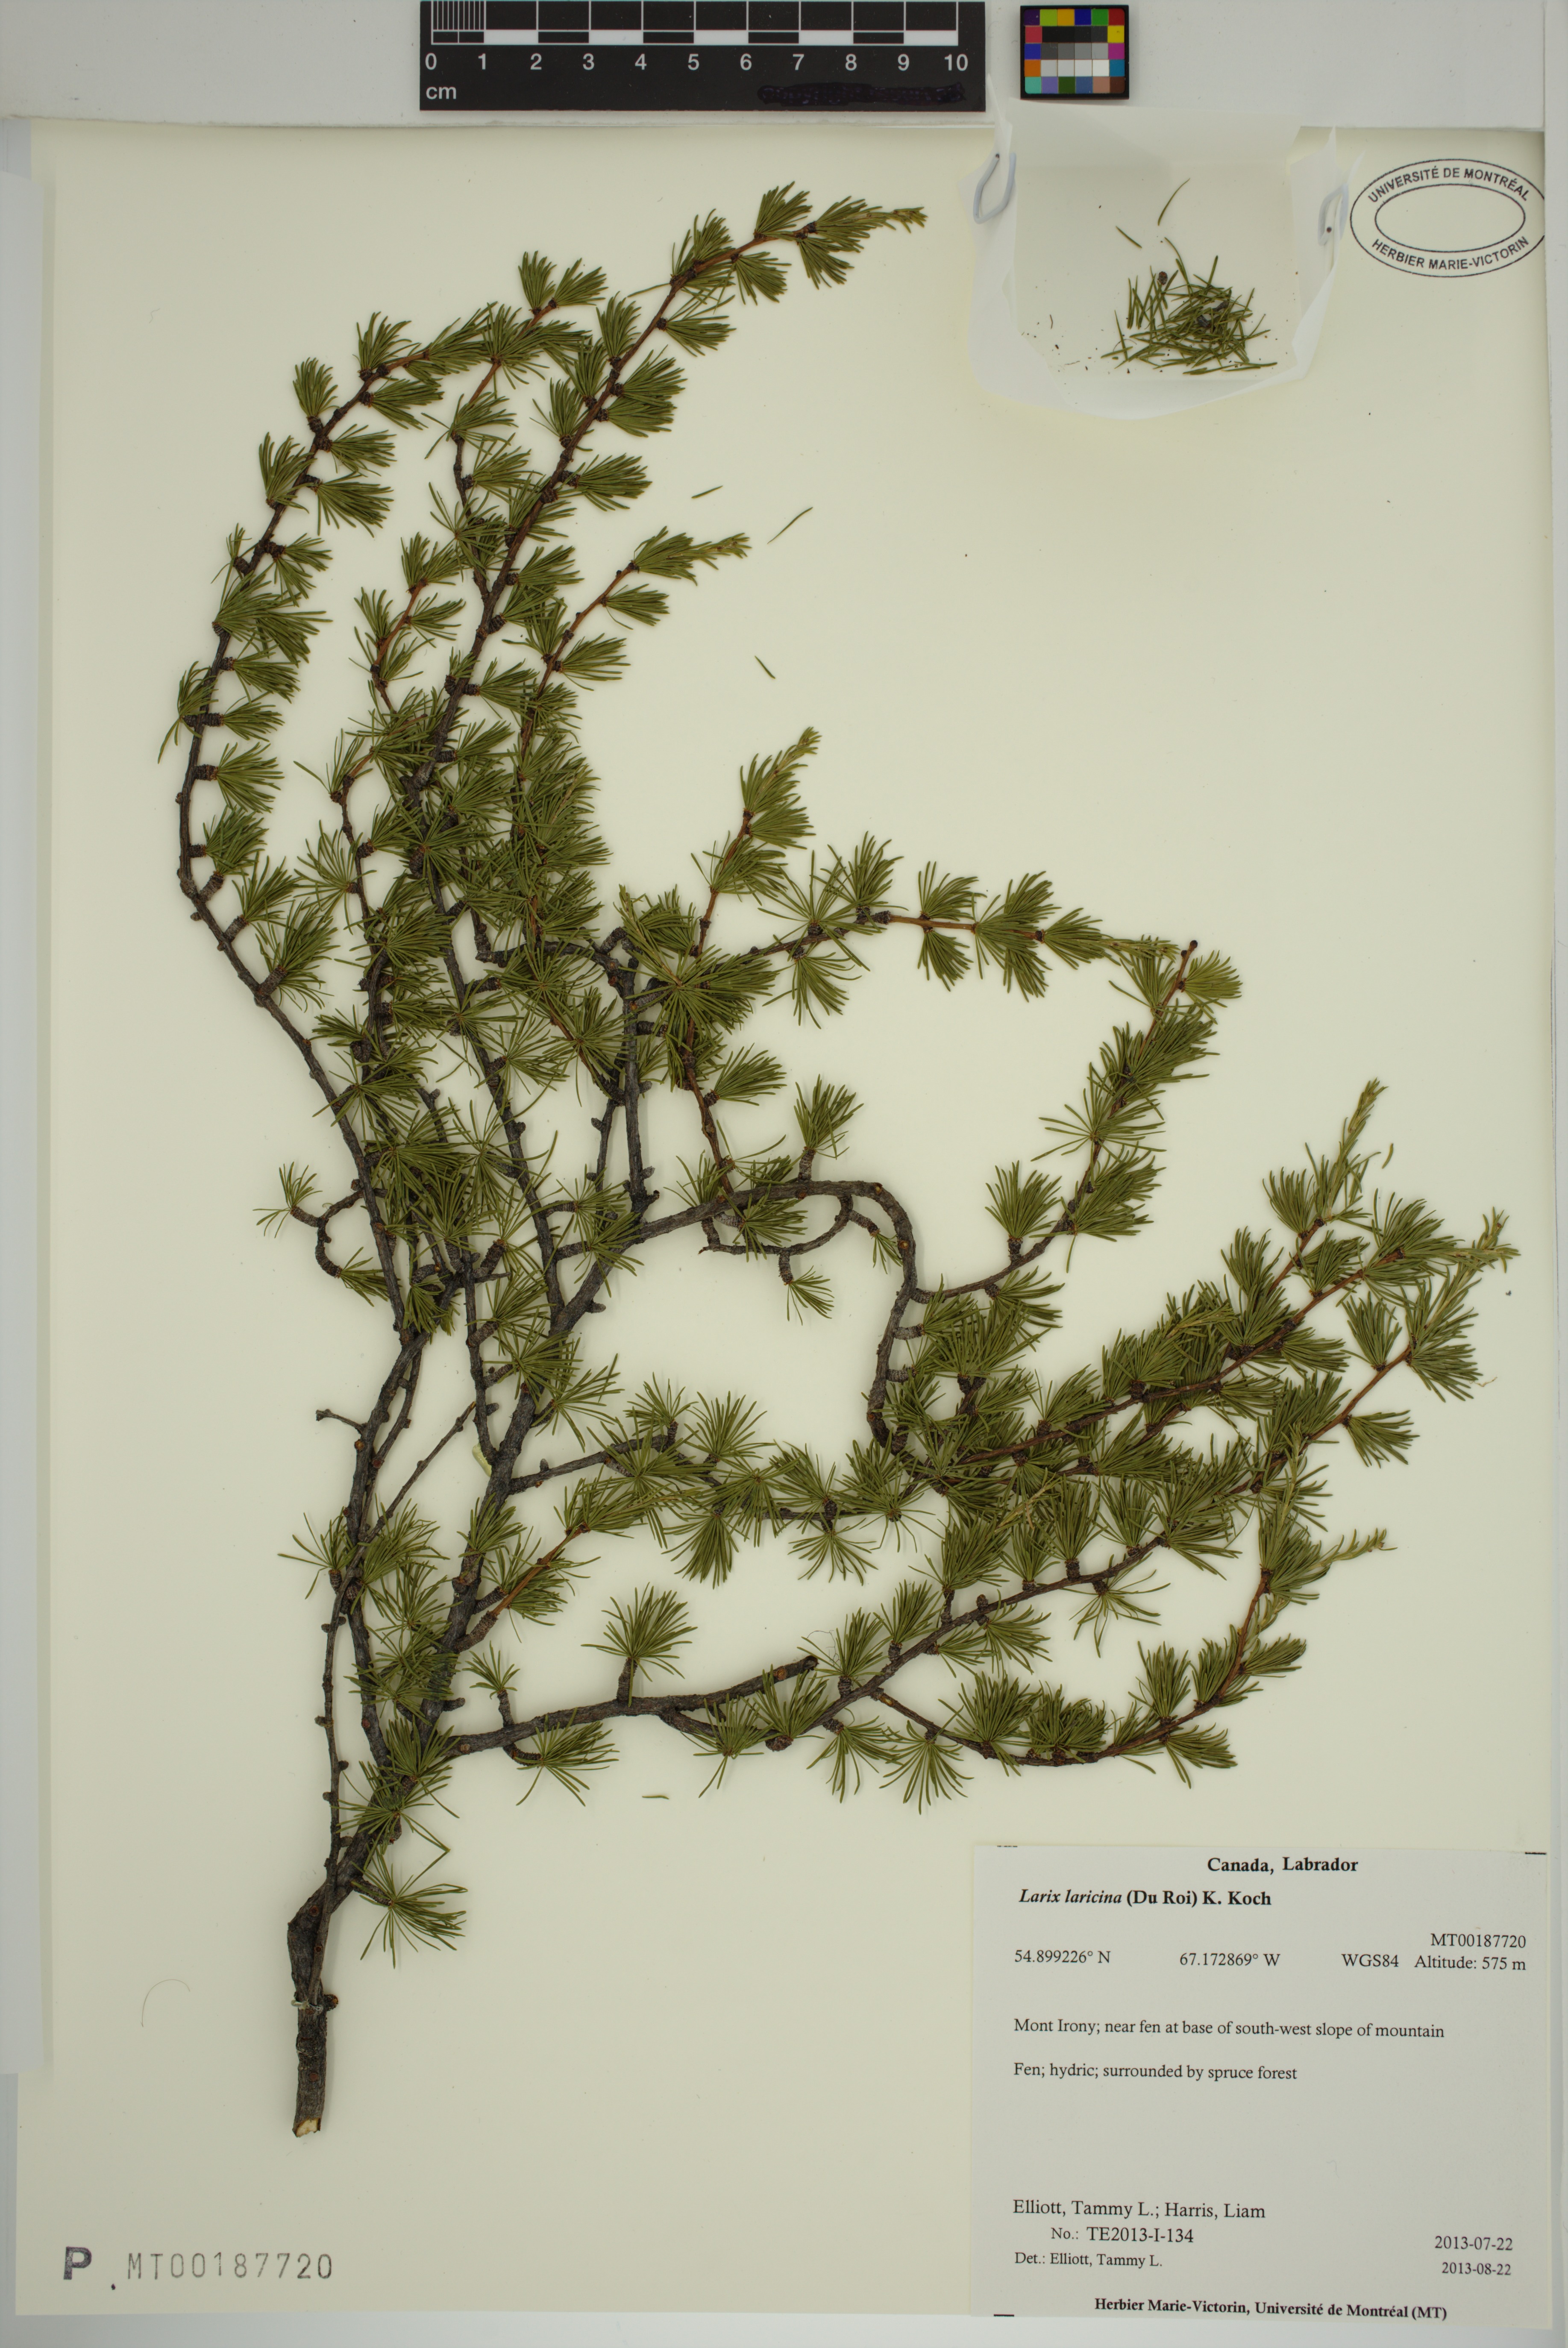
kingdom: Plantae
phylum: Tracheophyta
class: Pinopsida
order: Pinales
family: Pinaceae
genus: Larix
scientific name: Larix laricina
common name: American larch
